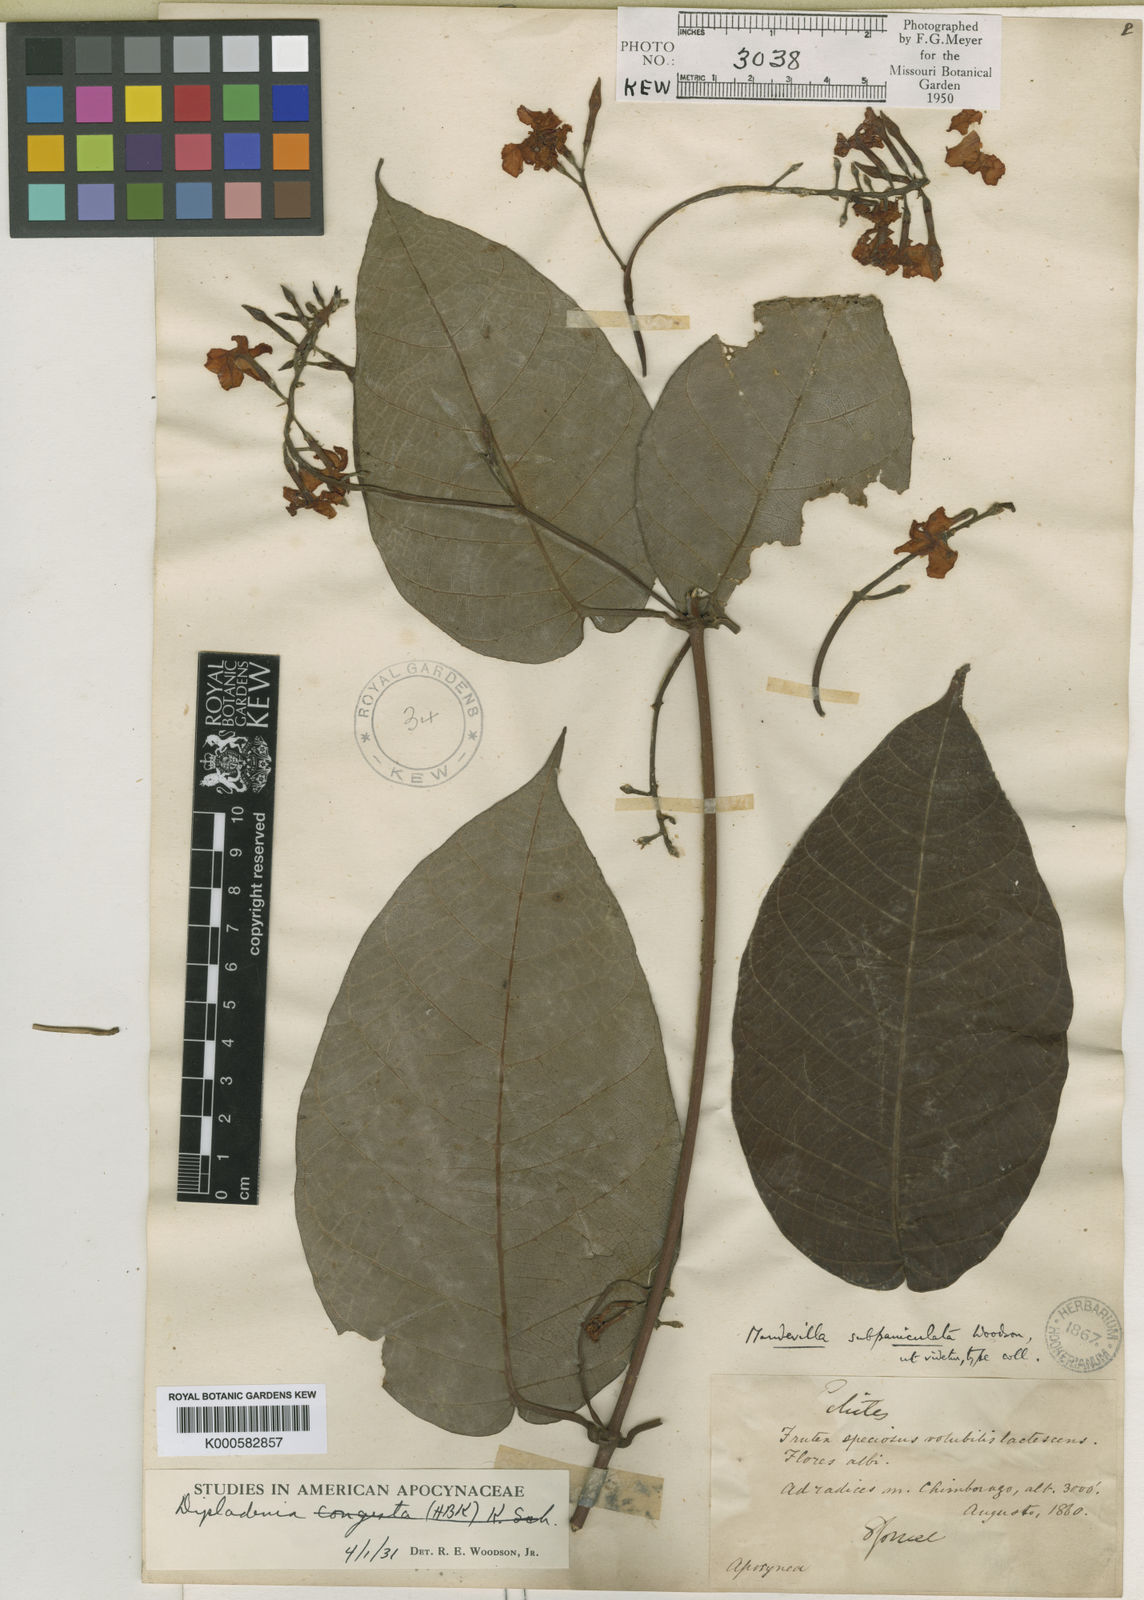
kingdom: Plantae
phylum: Tracheophyta
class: Magnoliopsida
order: Gentianales
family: Apocynaceae
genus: Mandevilla
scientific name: Mandevilla bogotensis
